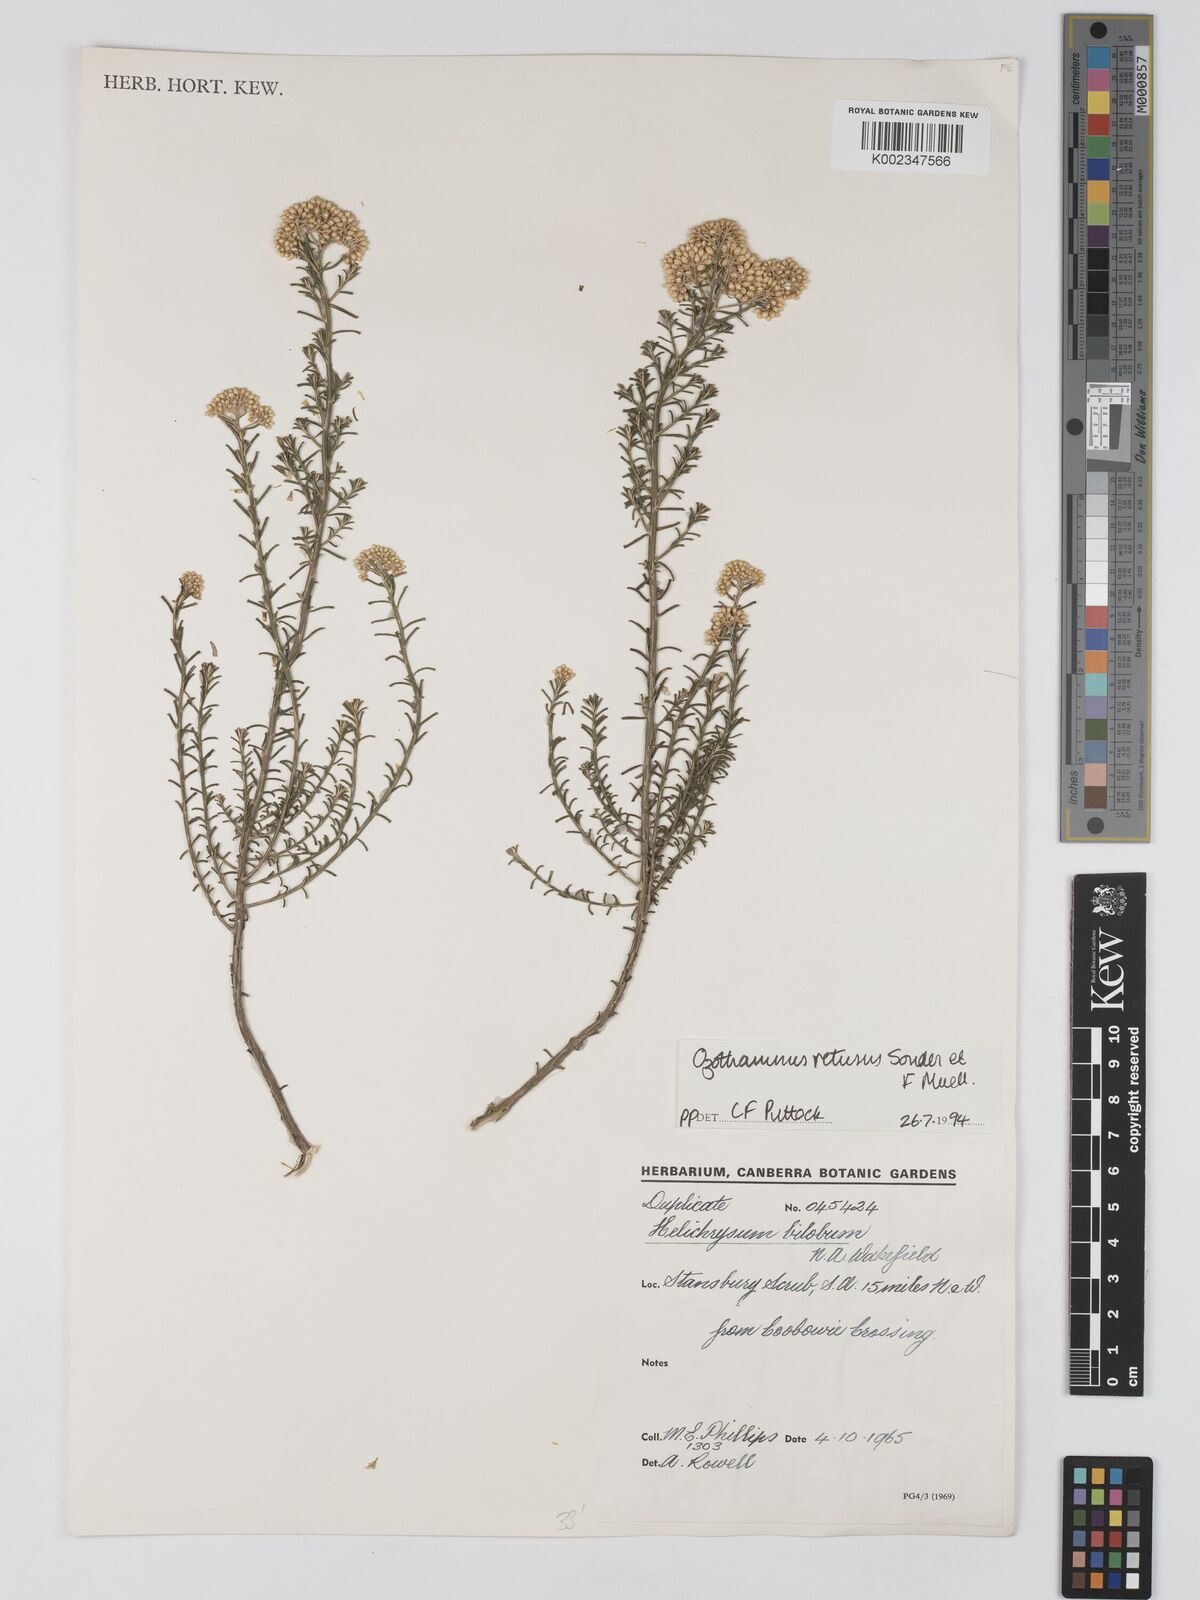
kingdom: Plantae
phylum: Tracheophyta
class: Magnoliopsida
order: Asterales
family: Asteraceae
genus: Ozothamnus
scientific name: Ozothamnus adnatus
